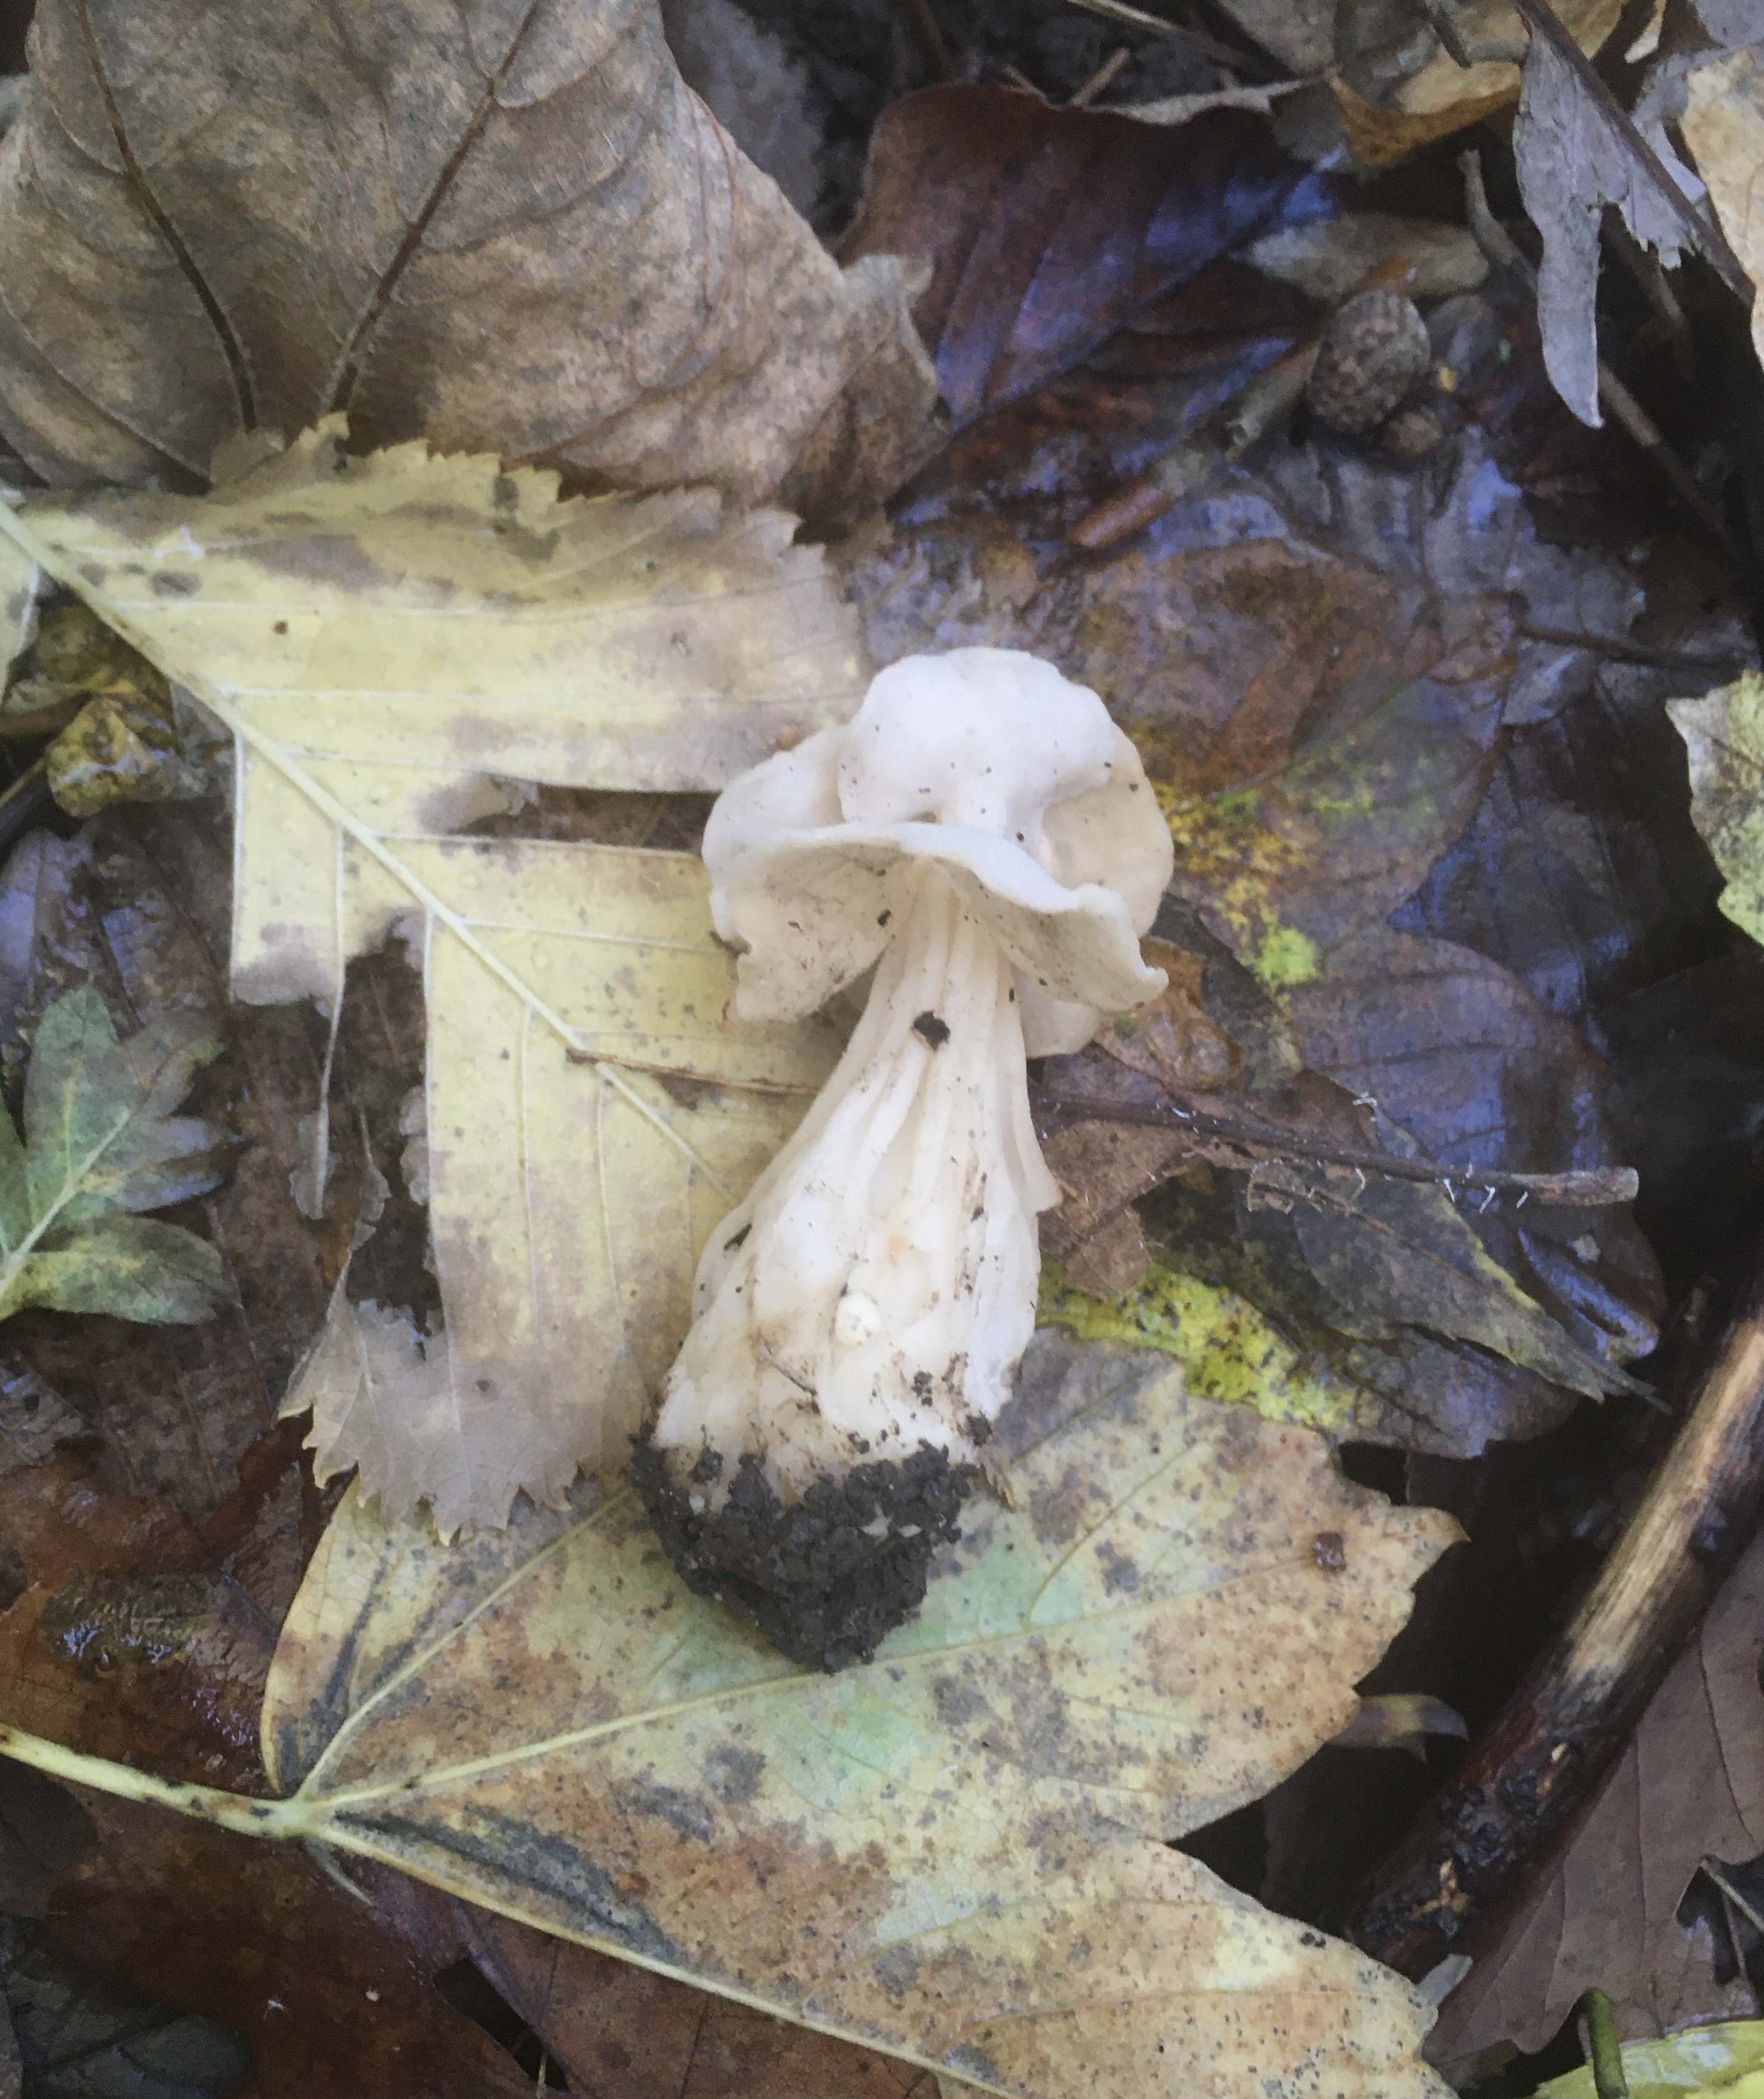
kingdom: Fungi
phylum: Ascomycota
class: Pezizomycetes
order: Pezizales
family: Helvellaceae
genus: Helvella
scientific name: Helvella crispa
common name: kruset foldhat
